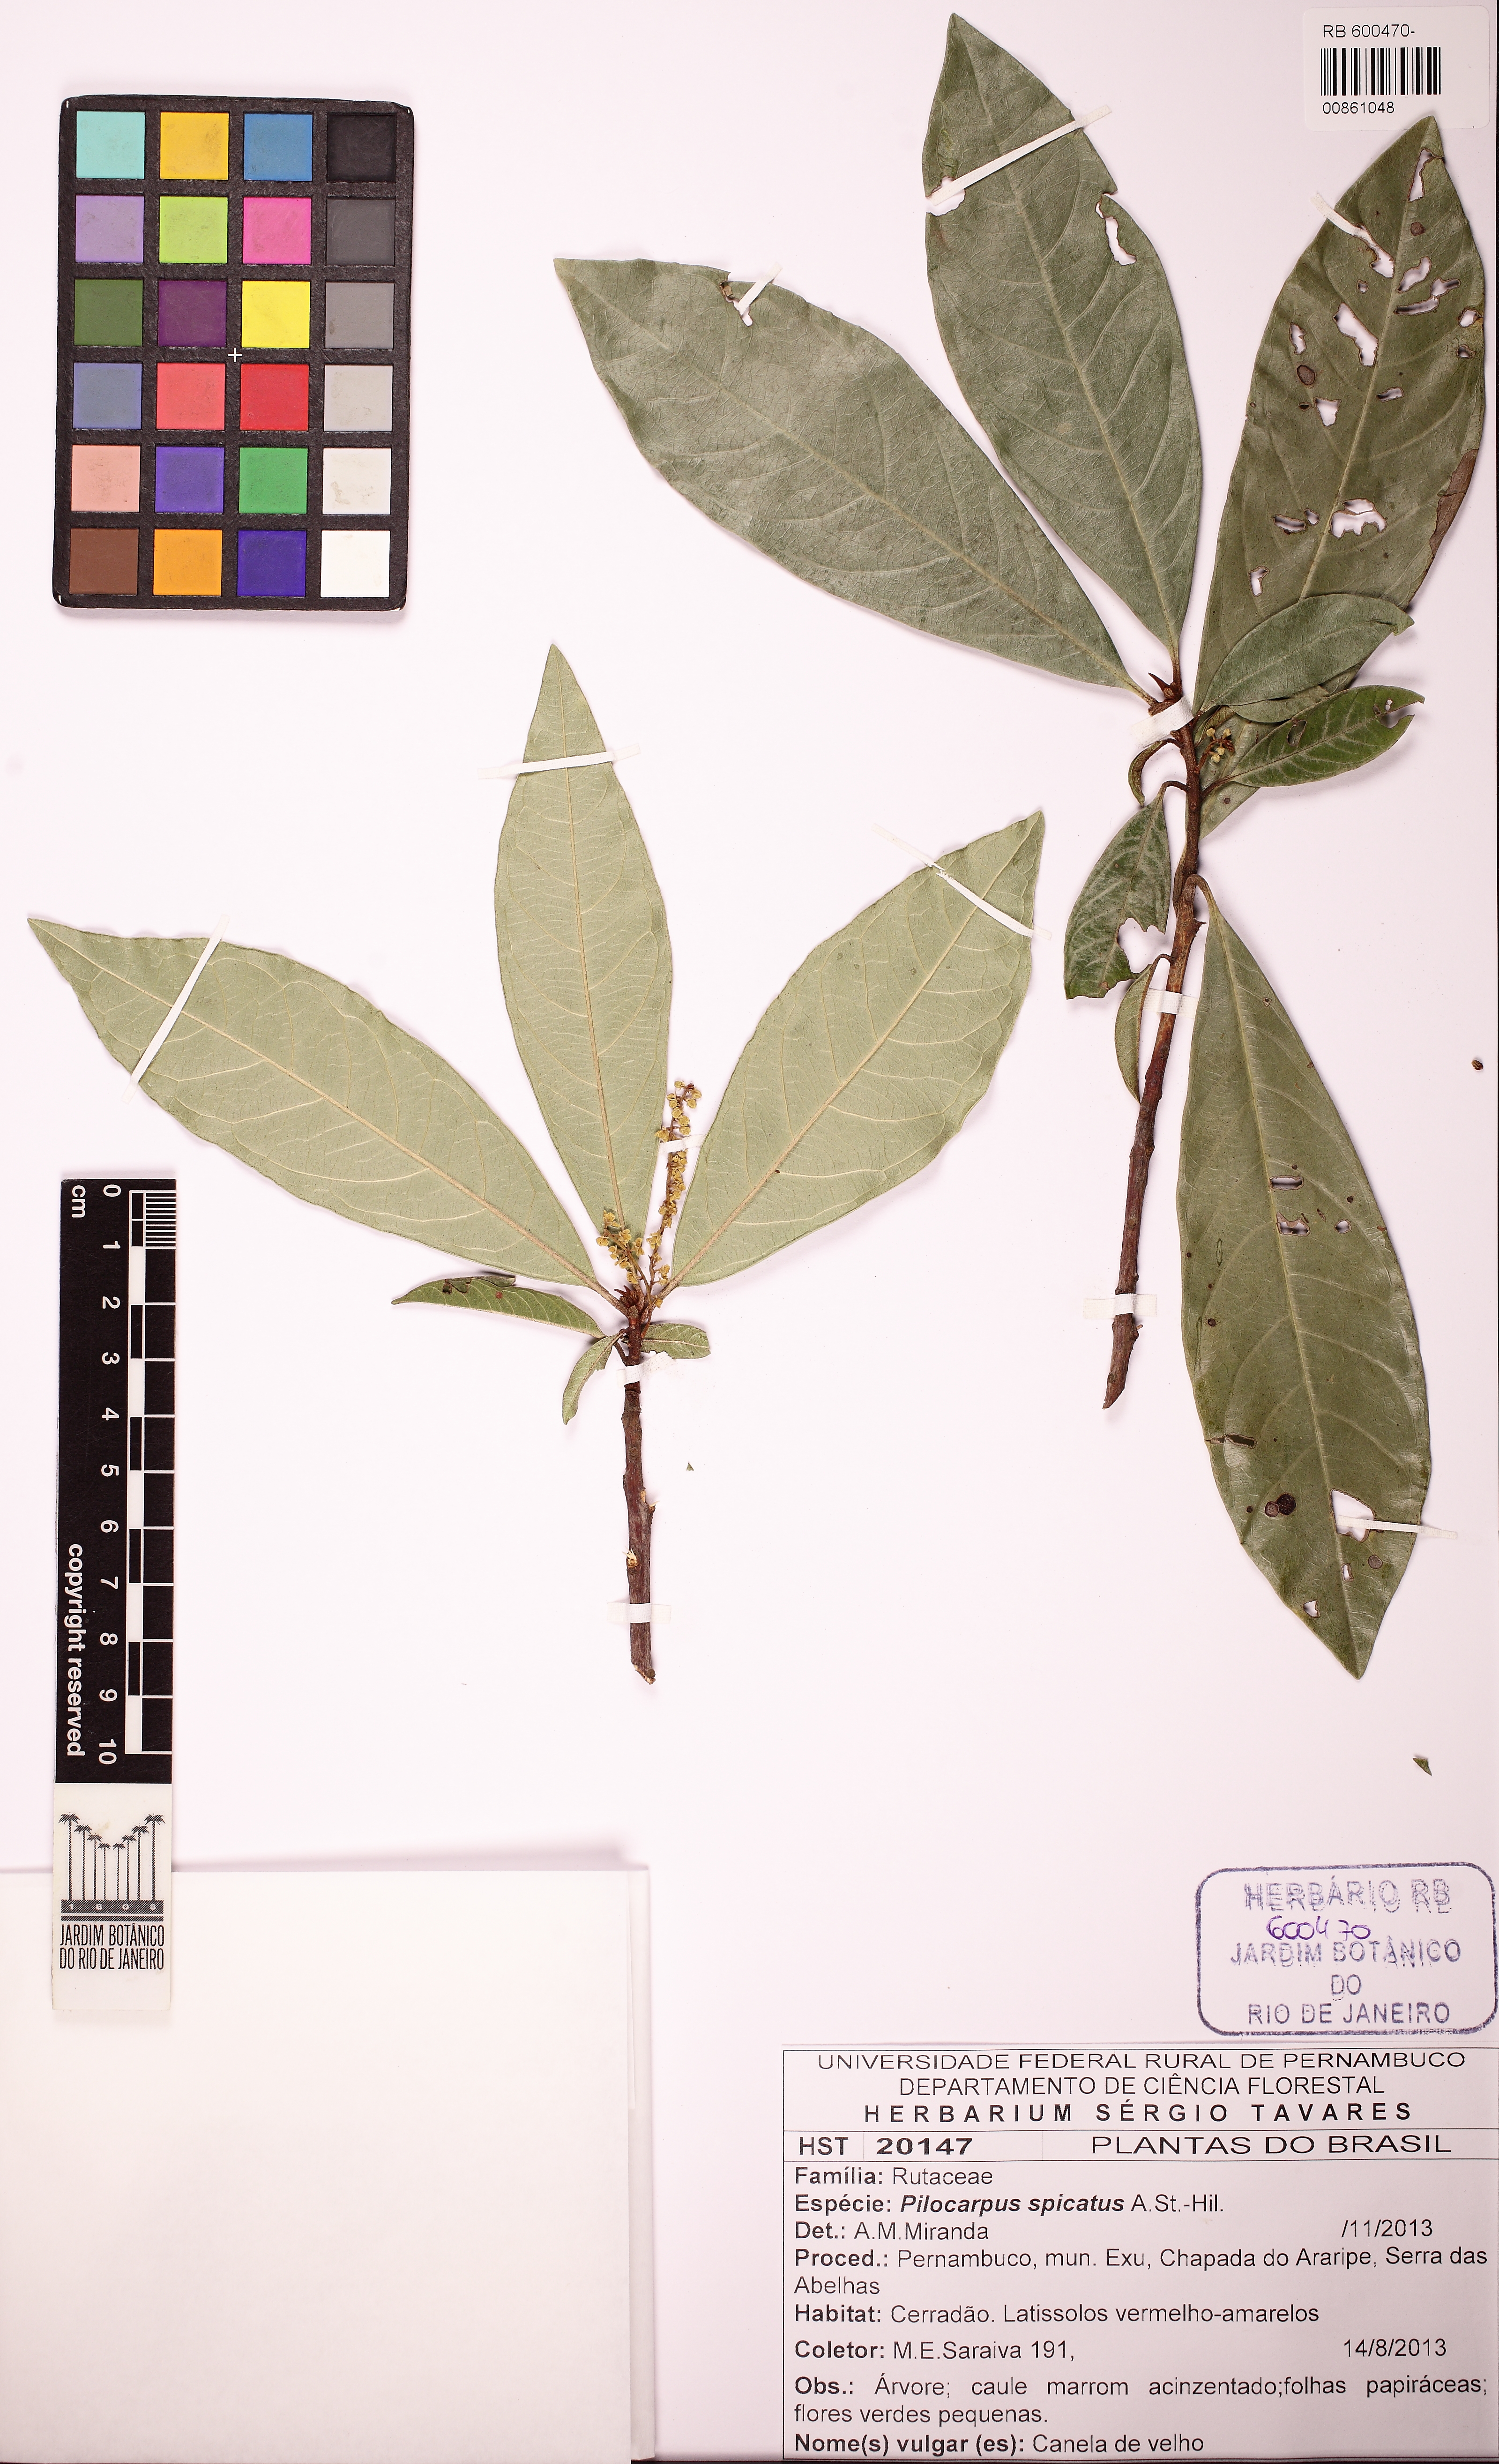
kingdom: Plantae
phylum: Tracheophyta
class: Magnoliopsida
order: Sapindales
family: Rutaceae
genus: Pilocarpus
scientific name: Pilocarpus spicatus
